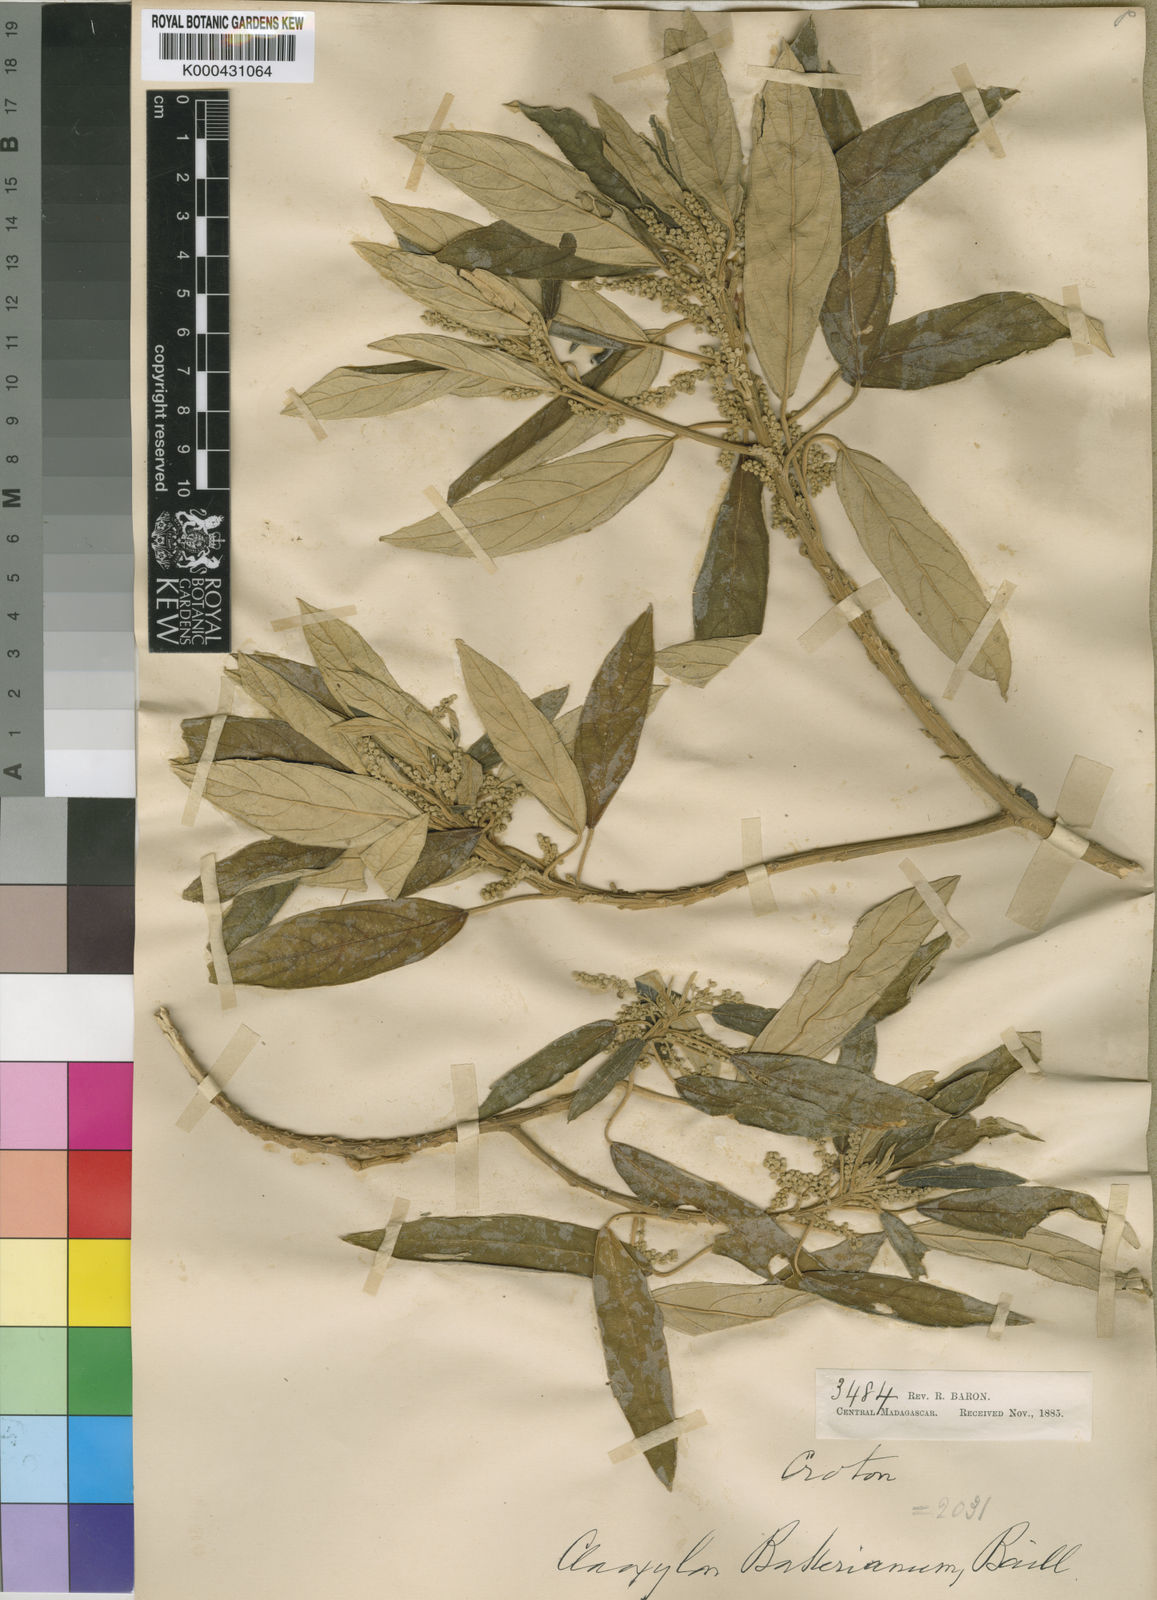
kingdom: Plantae
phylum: Tracheophyta
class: Magnoliopsida
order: Malpighiales
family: Euphorbiaceae
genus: Lobanilia
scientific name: Lobanilia bakeriana
